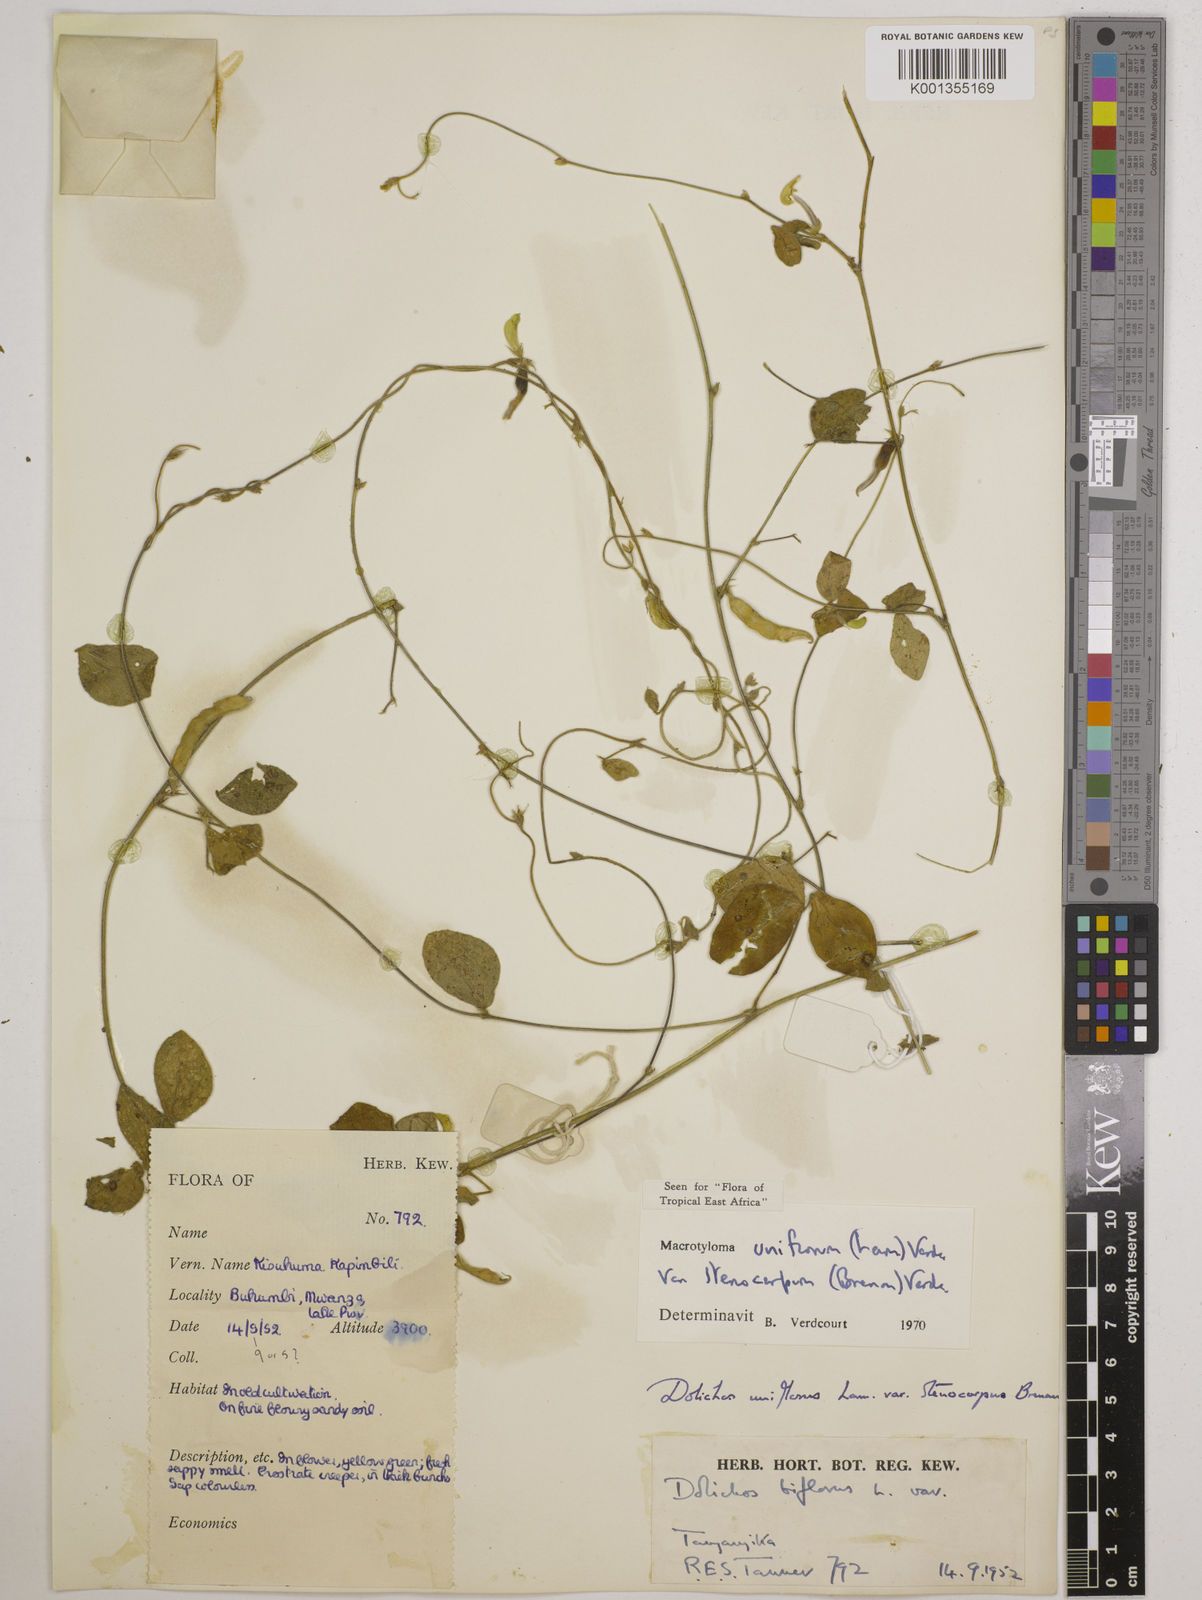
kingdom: Plantae
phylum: Tracheophyta
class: Magnoliopsida
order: Fabales
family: Fabaceae
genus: Macrotyloma
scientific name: Macrotyloma
